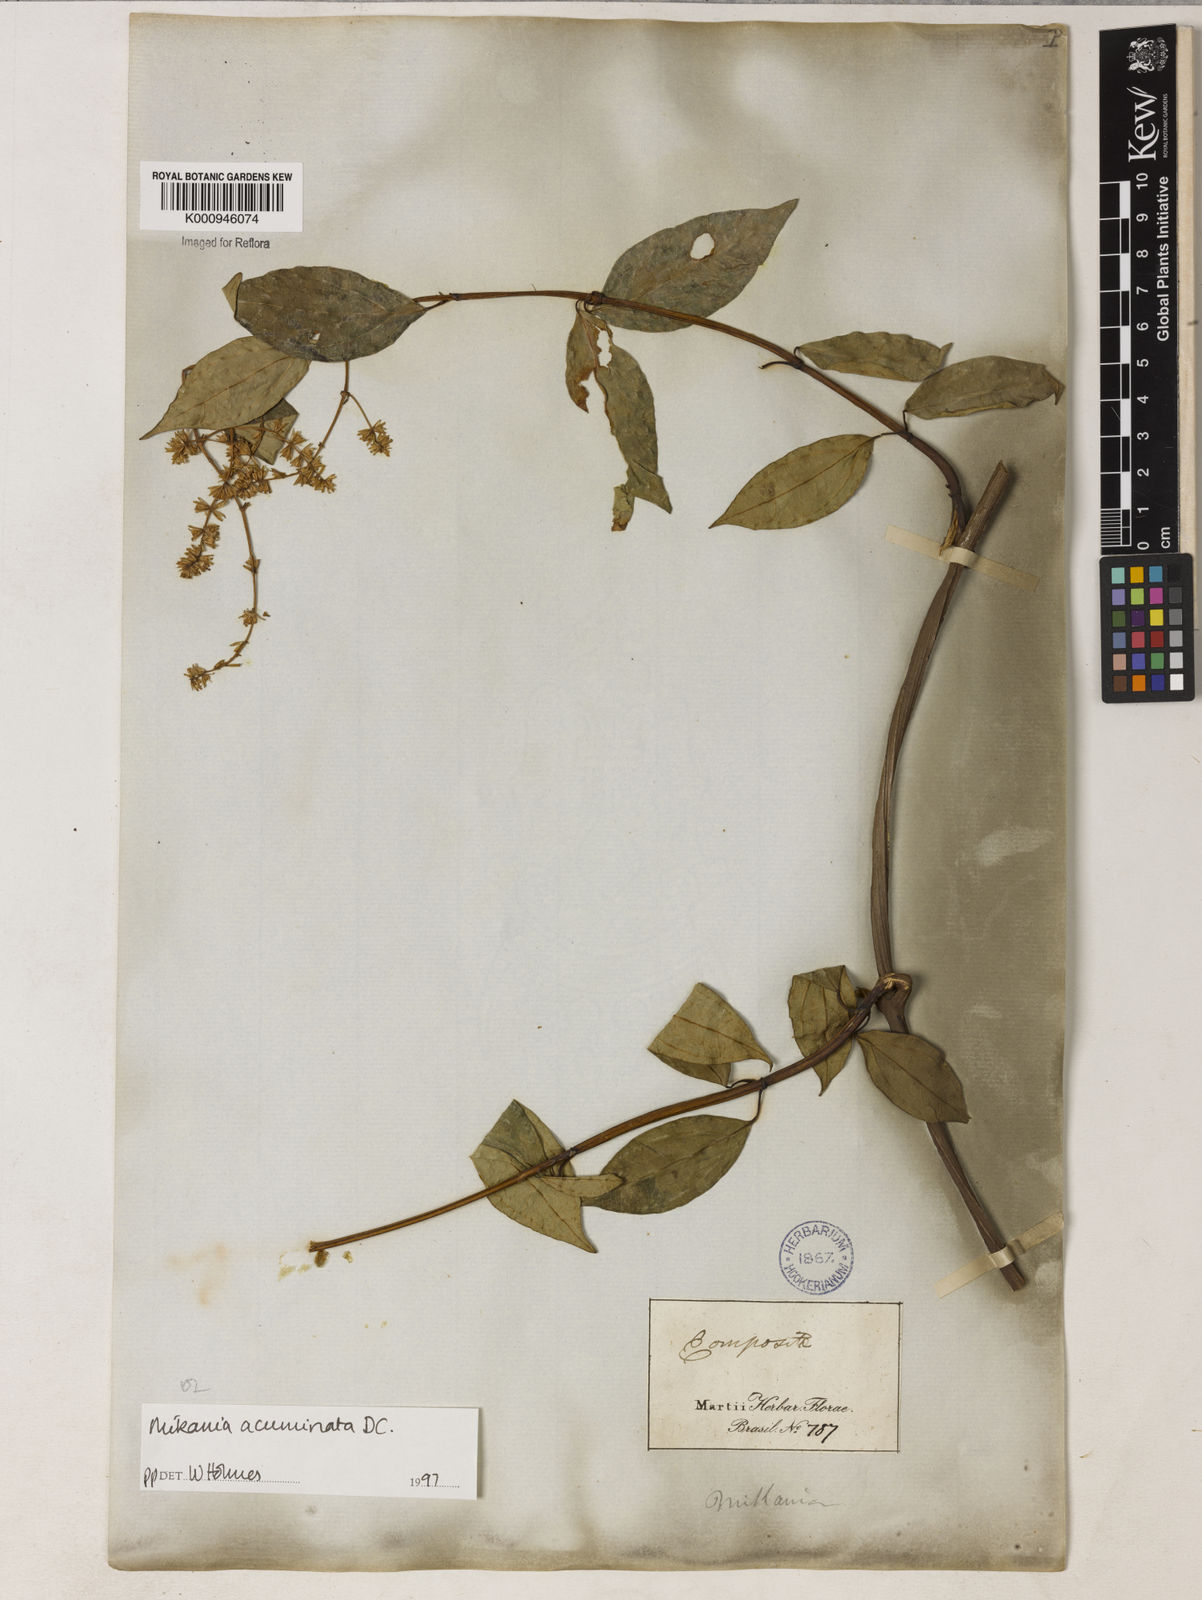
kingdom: Plantae
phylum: Tracheophyta
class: Magnoliopsida
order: Asterales
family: Asteraceae
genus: Mikania
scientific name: Mikania acuminata
